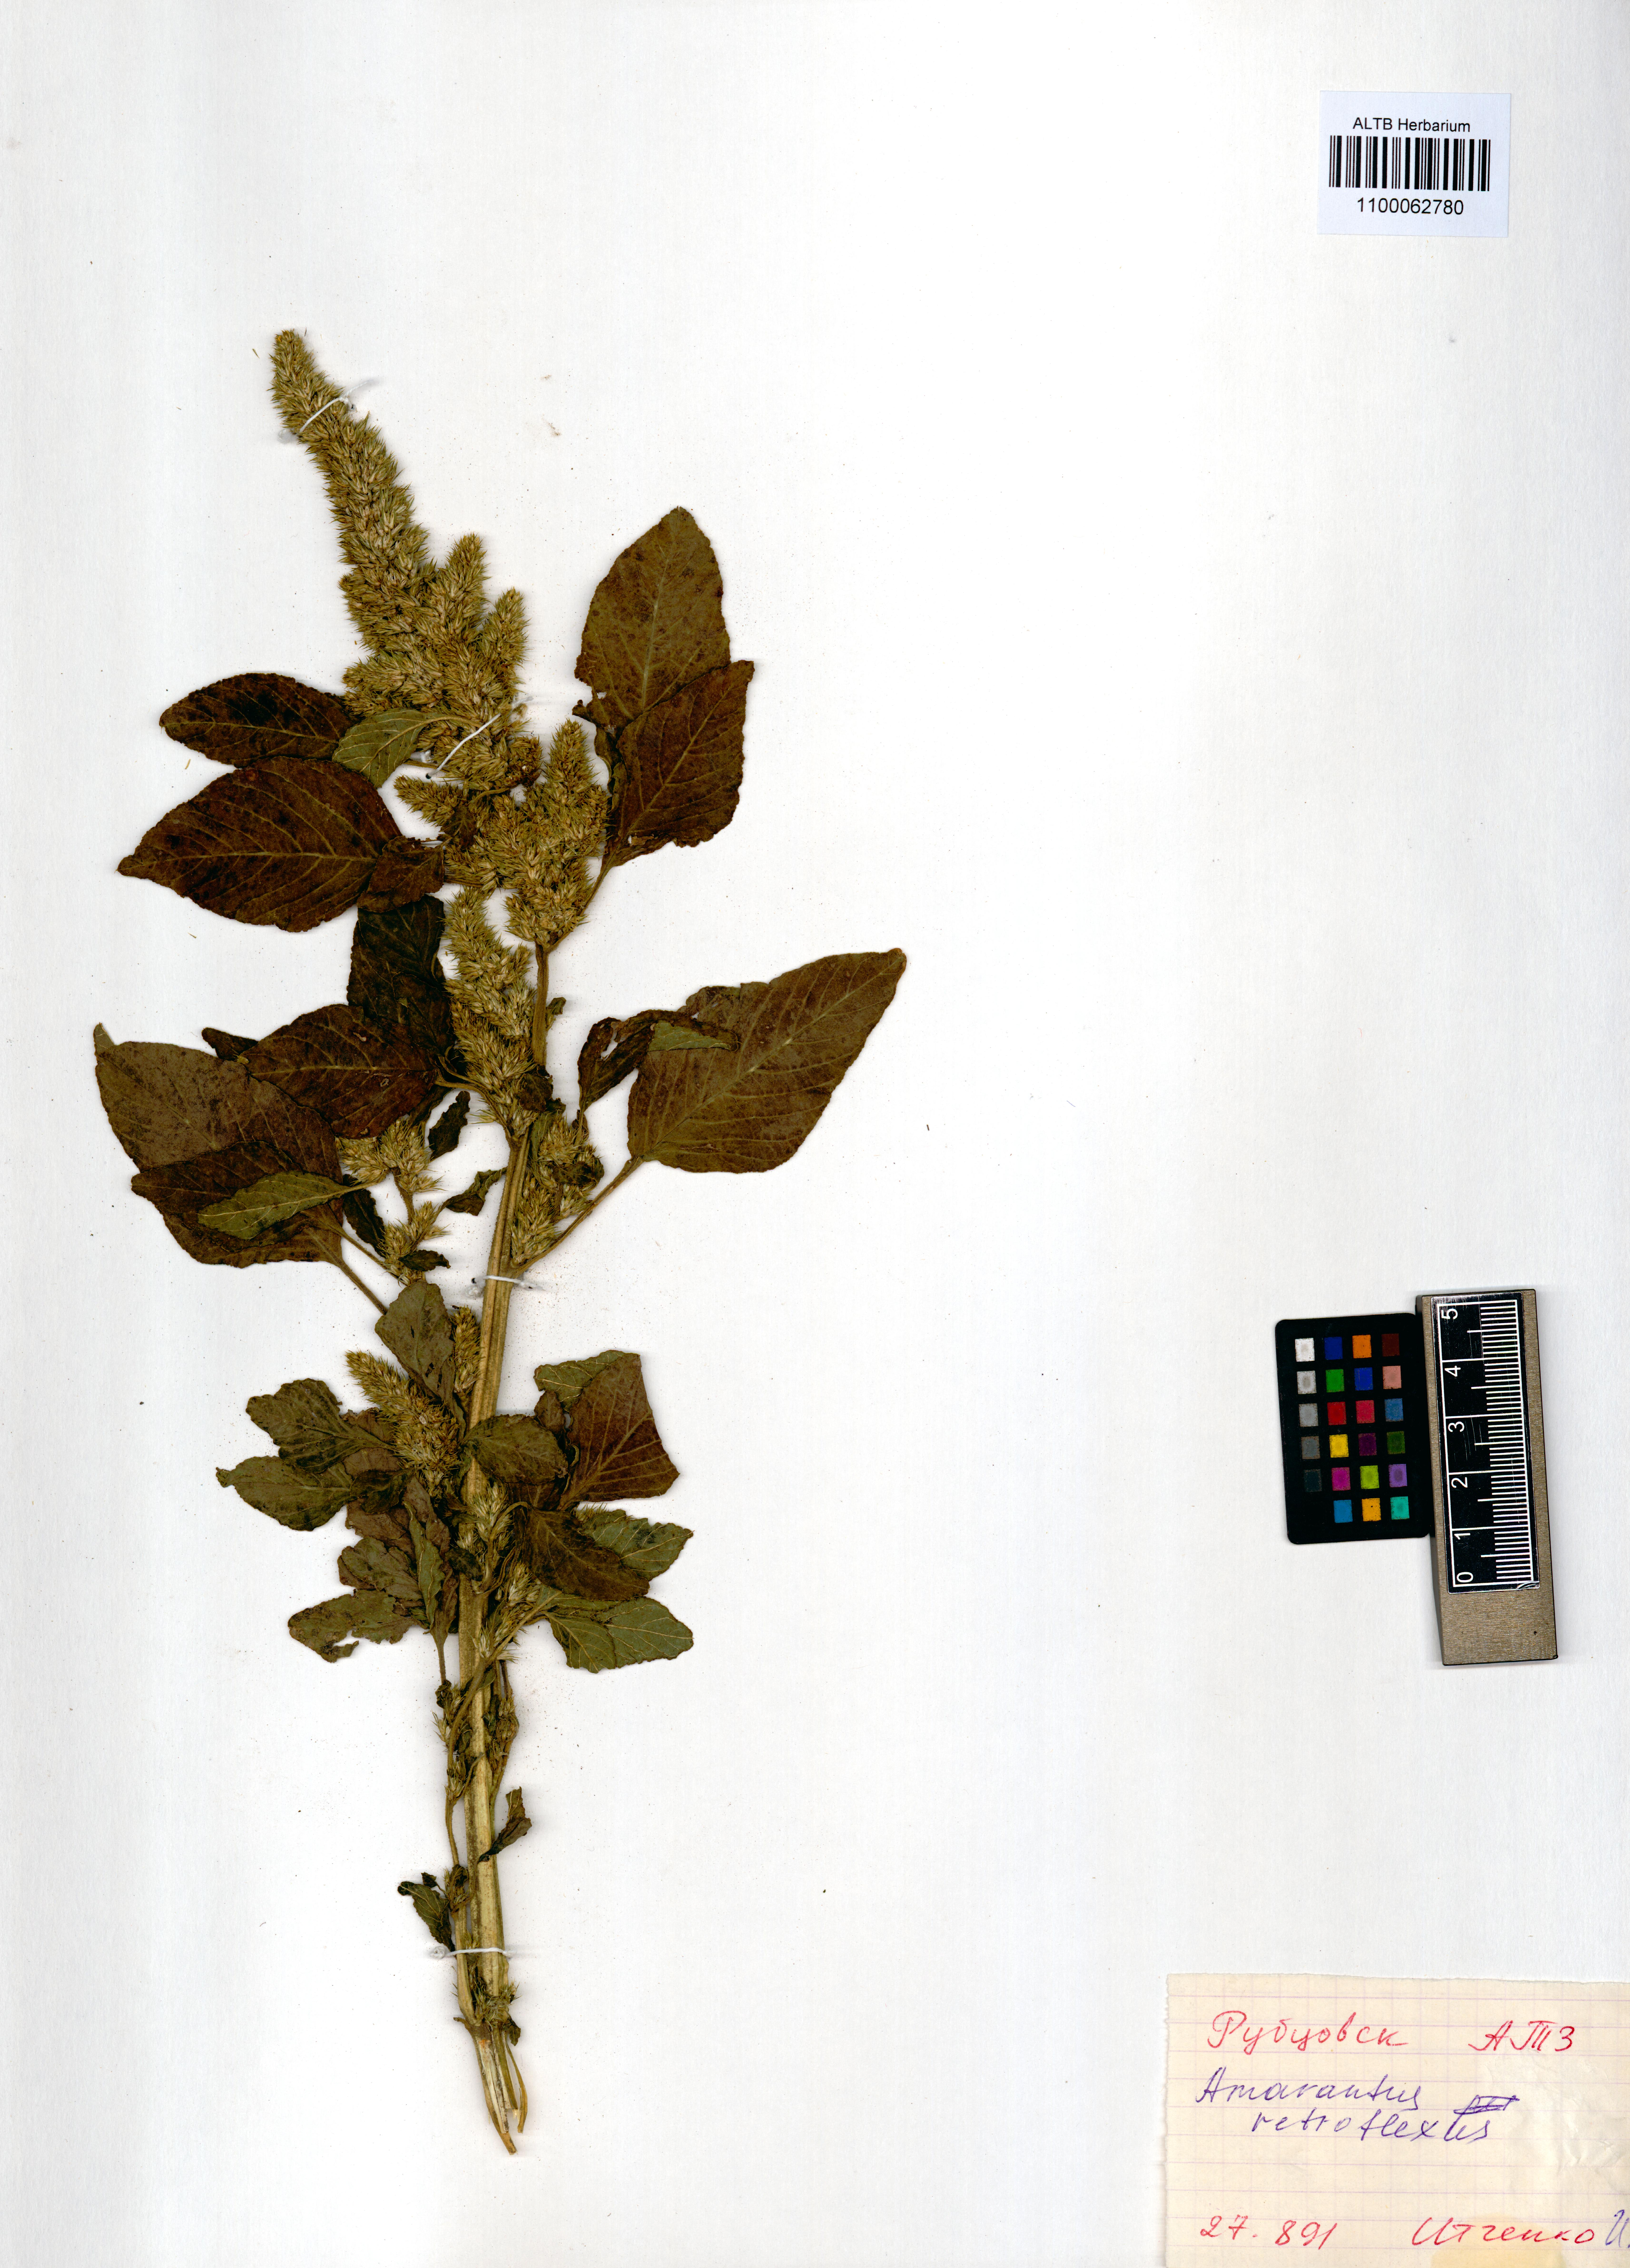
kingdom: Plantae
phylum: Tracheophyta
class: Magnoliopsida
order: Caryophyllales
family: Amaranthaceae
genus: Amaranthus
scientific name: Amaranthus retroflexus
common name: Redroot amaranth
